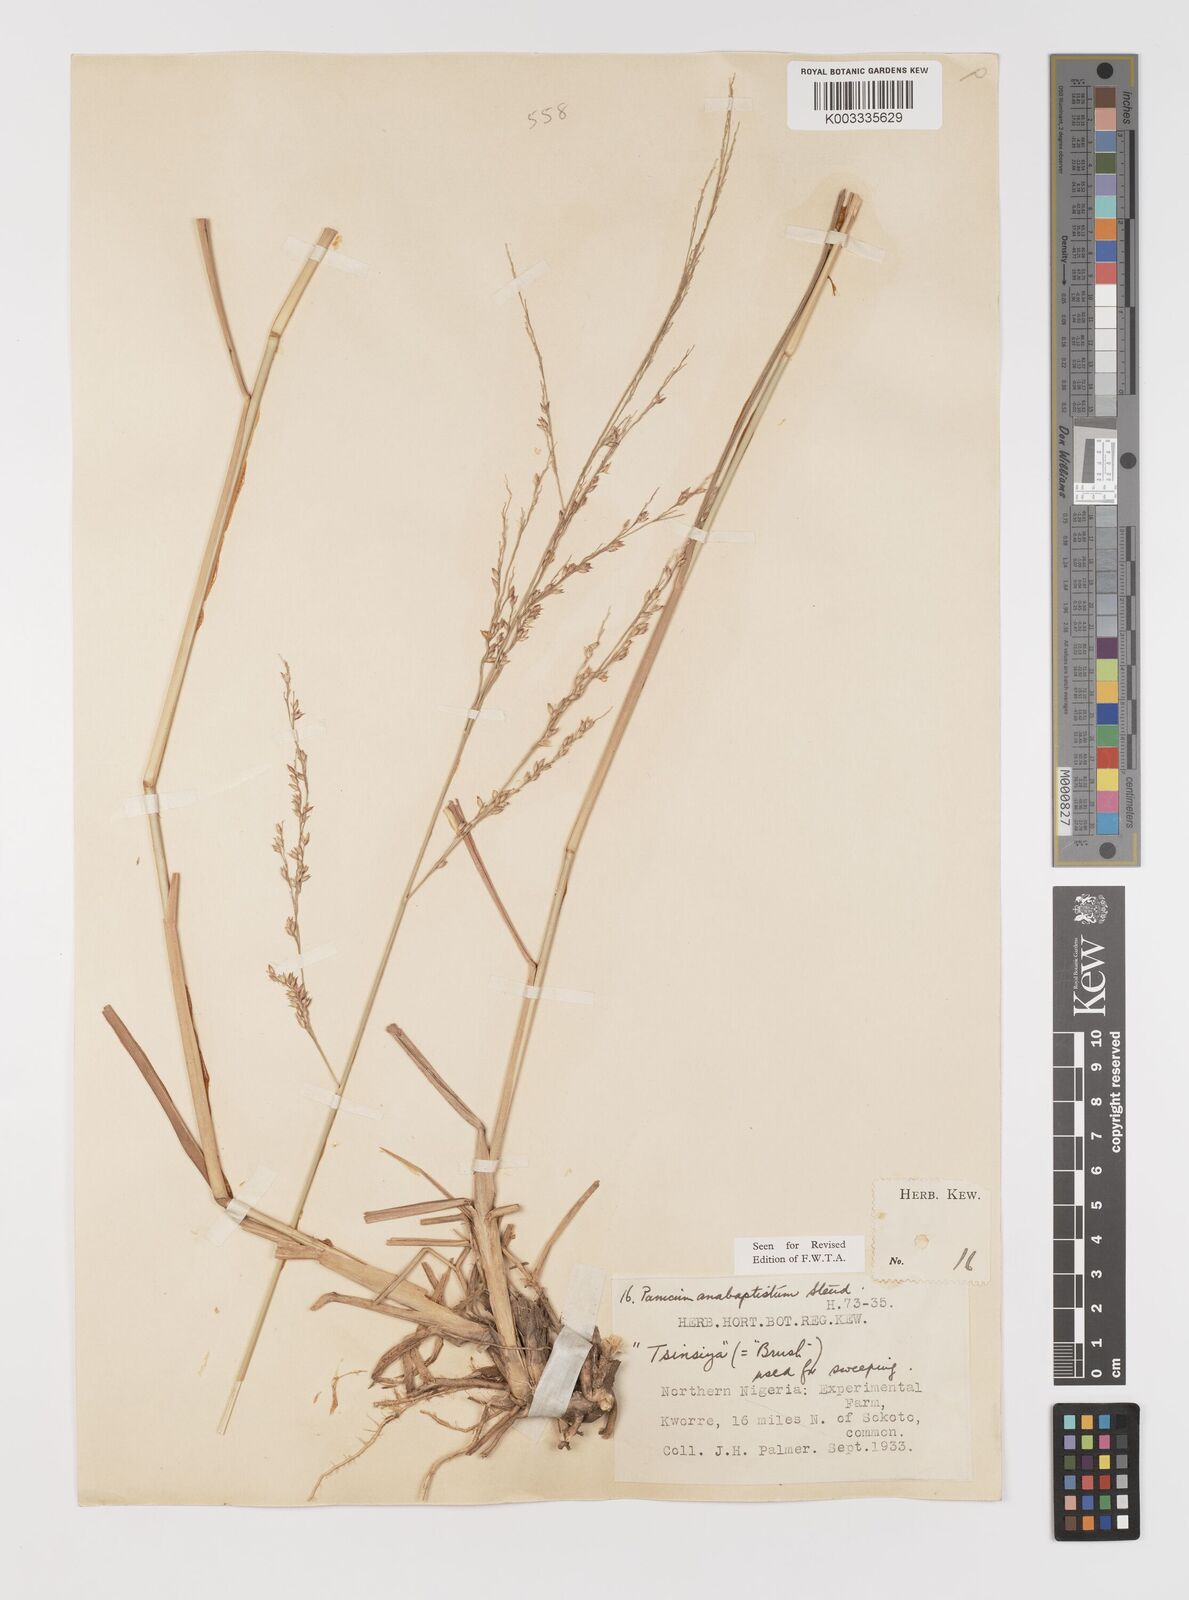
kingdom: Plantae
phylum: Tracheophyta
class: Liliopsida
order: Poales
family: Poaceae
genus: Panicum
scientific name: Panicum anabaptistum
